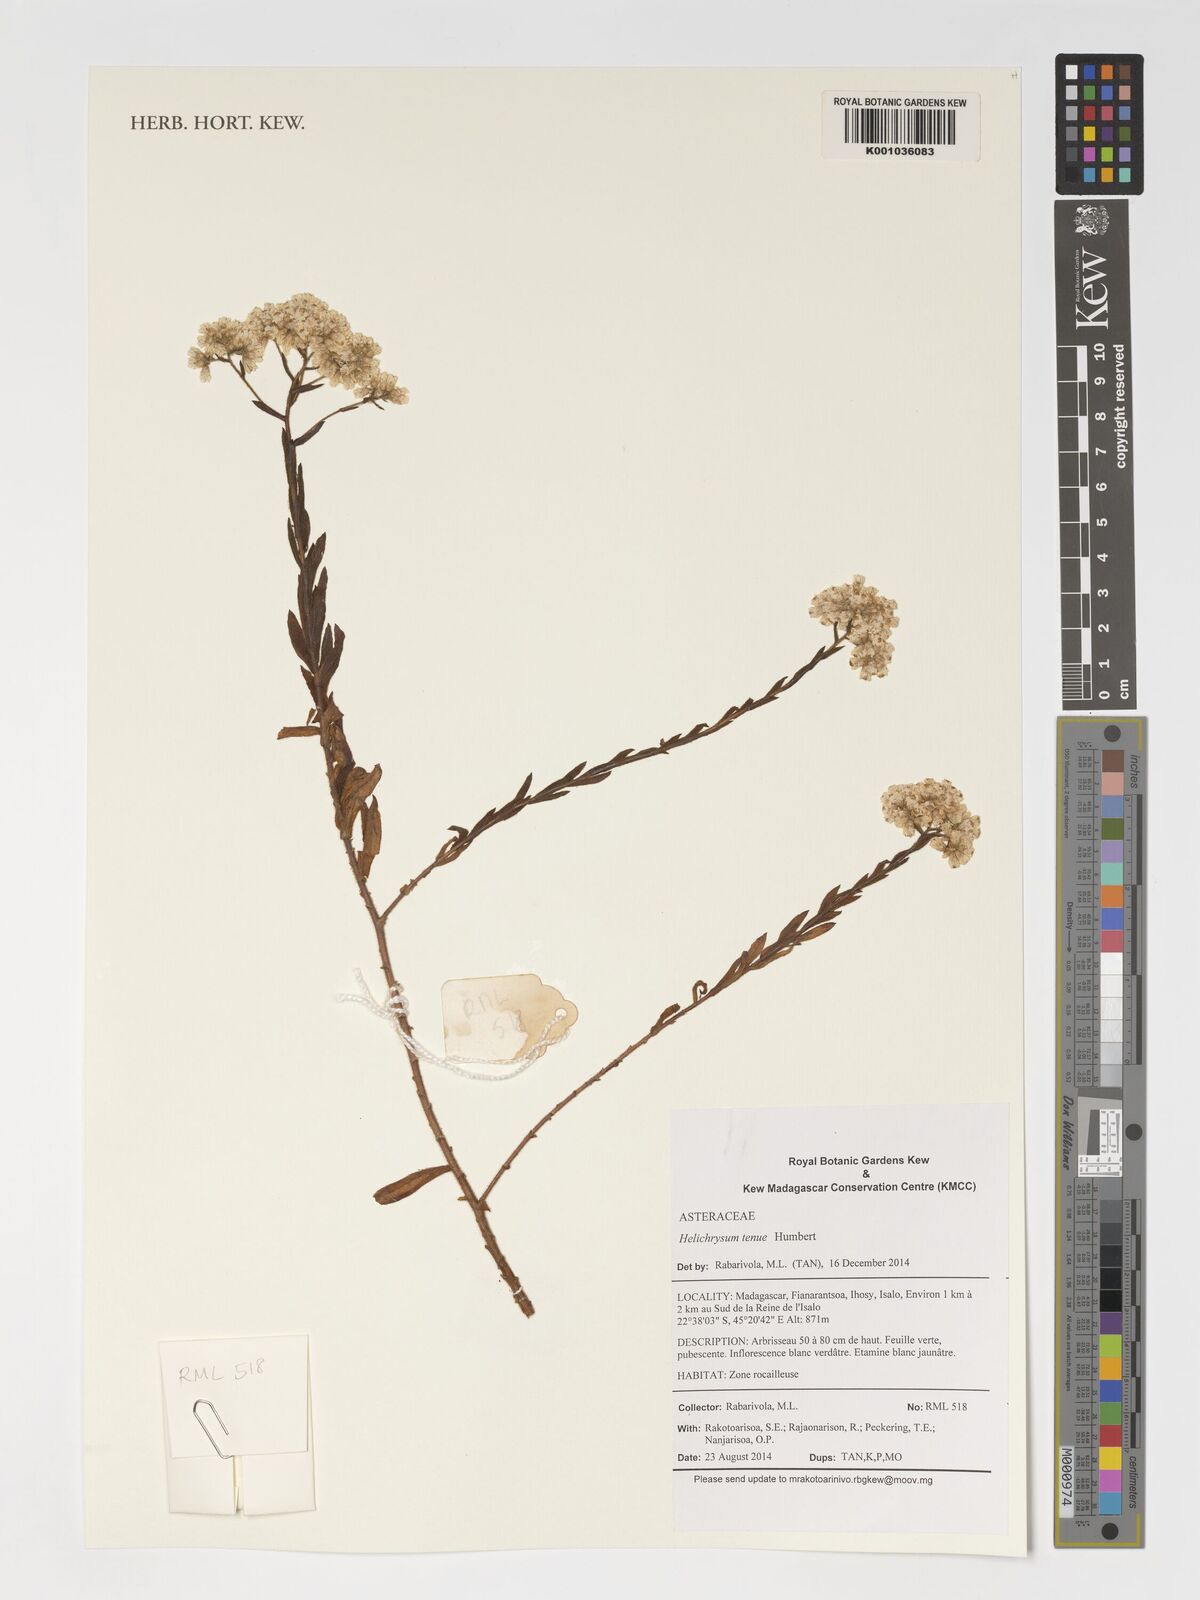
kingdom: Plantae
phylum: Tracheophyta
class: Magnoliopsida
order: Asterales
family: Asteraceae
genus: Helichrysum
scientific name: Helichrysum tenue
